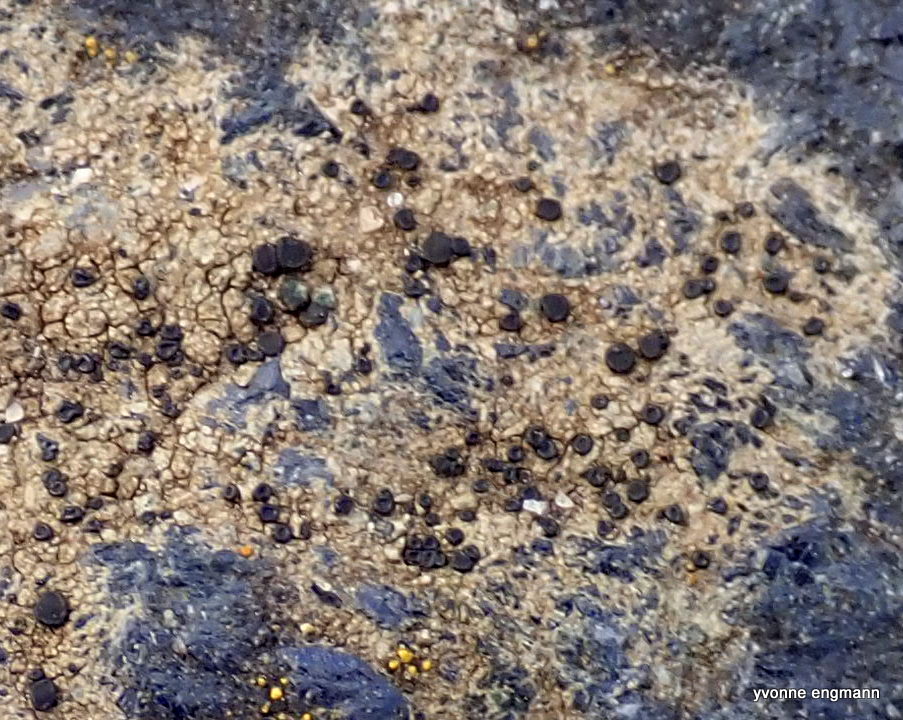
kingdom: Fungi
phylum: Ascomycota
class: Lecanoromycetes
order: Lecanorales
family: Lecanoraceae
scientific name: Lecanoraceae
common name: skivelavfamilien
